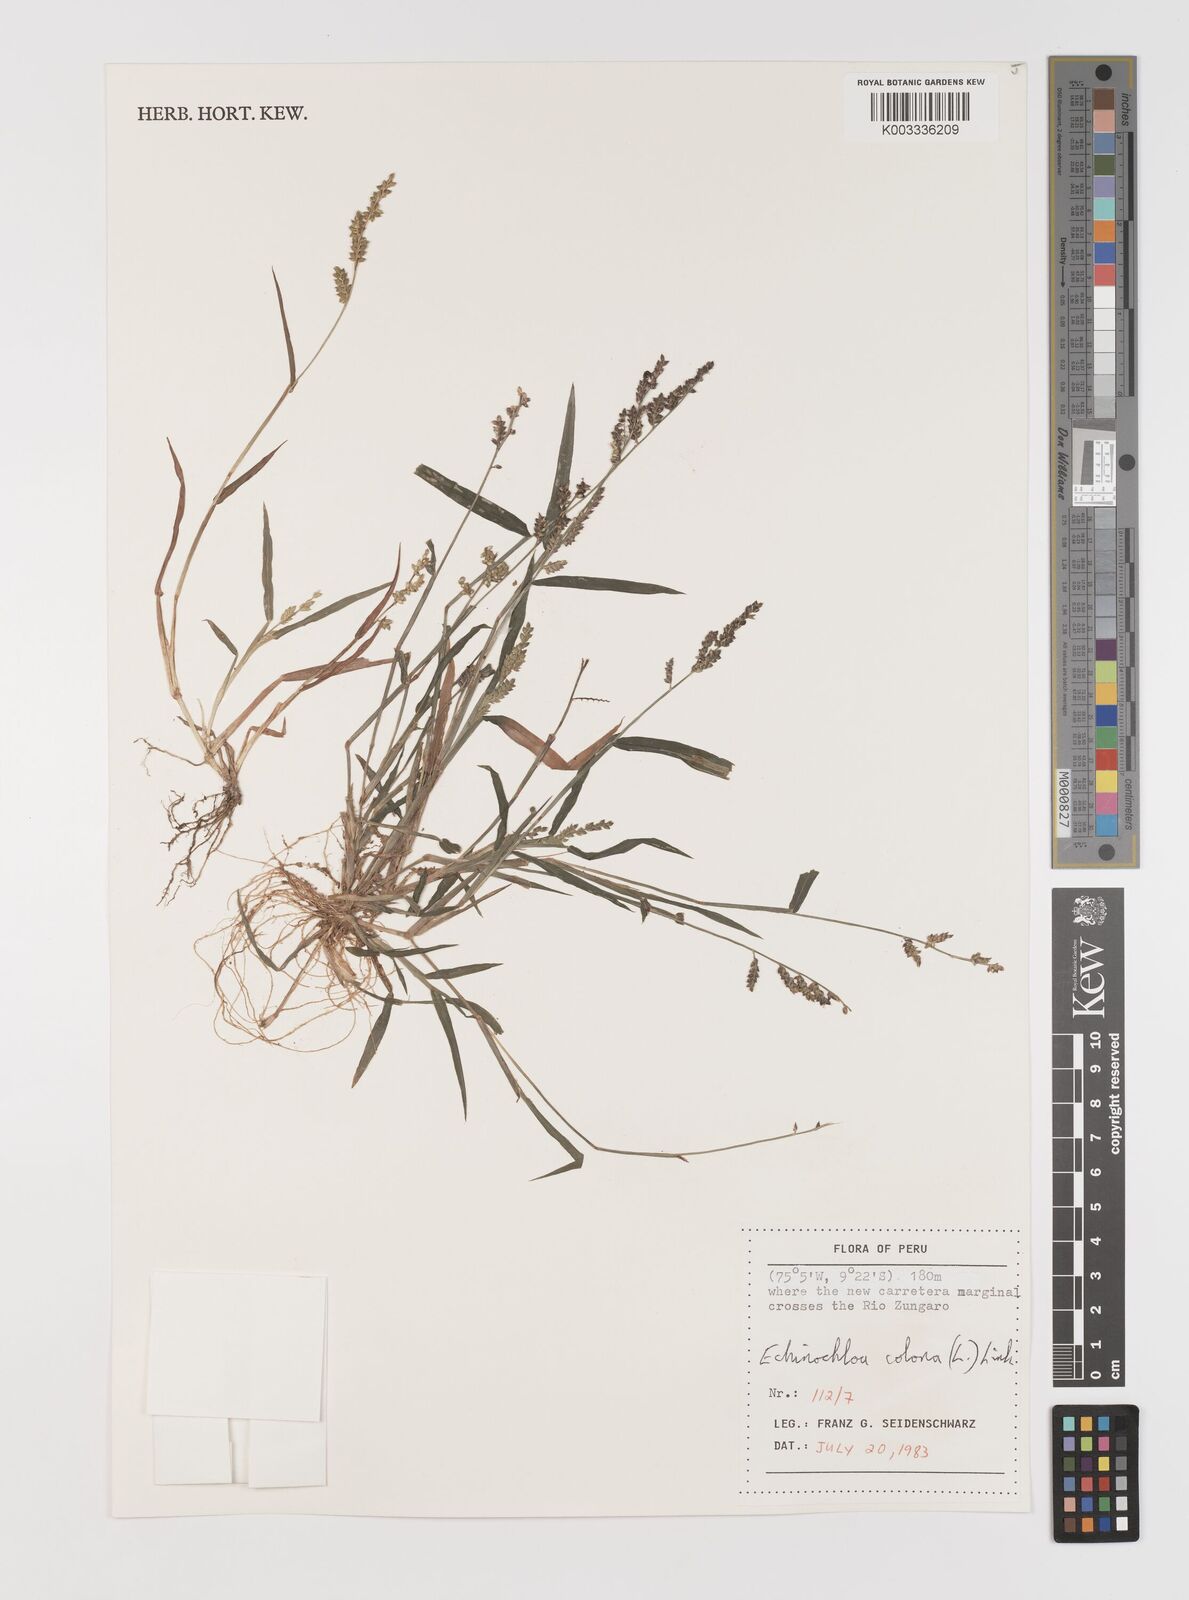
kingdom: Plantae
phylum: Tracheophyta
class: Liliopsida
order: Poales
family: Poaceae
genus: Echinochloa
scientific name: Echinochloa colonum
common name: Jungle rice
